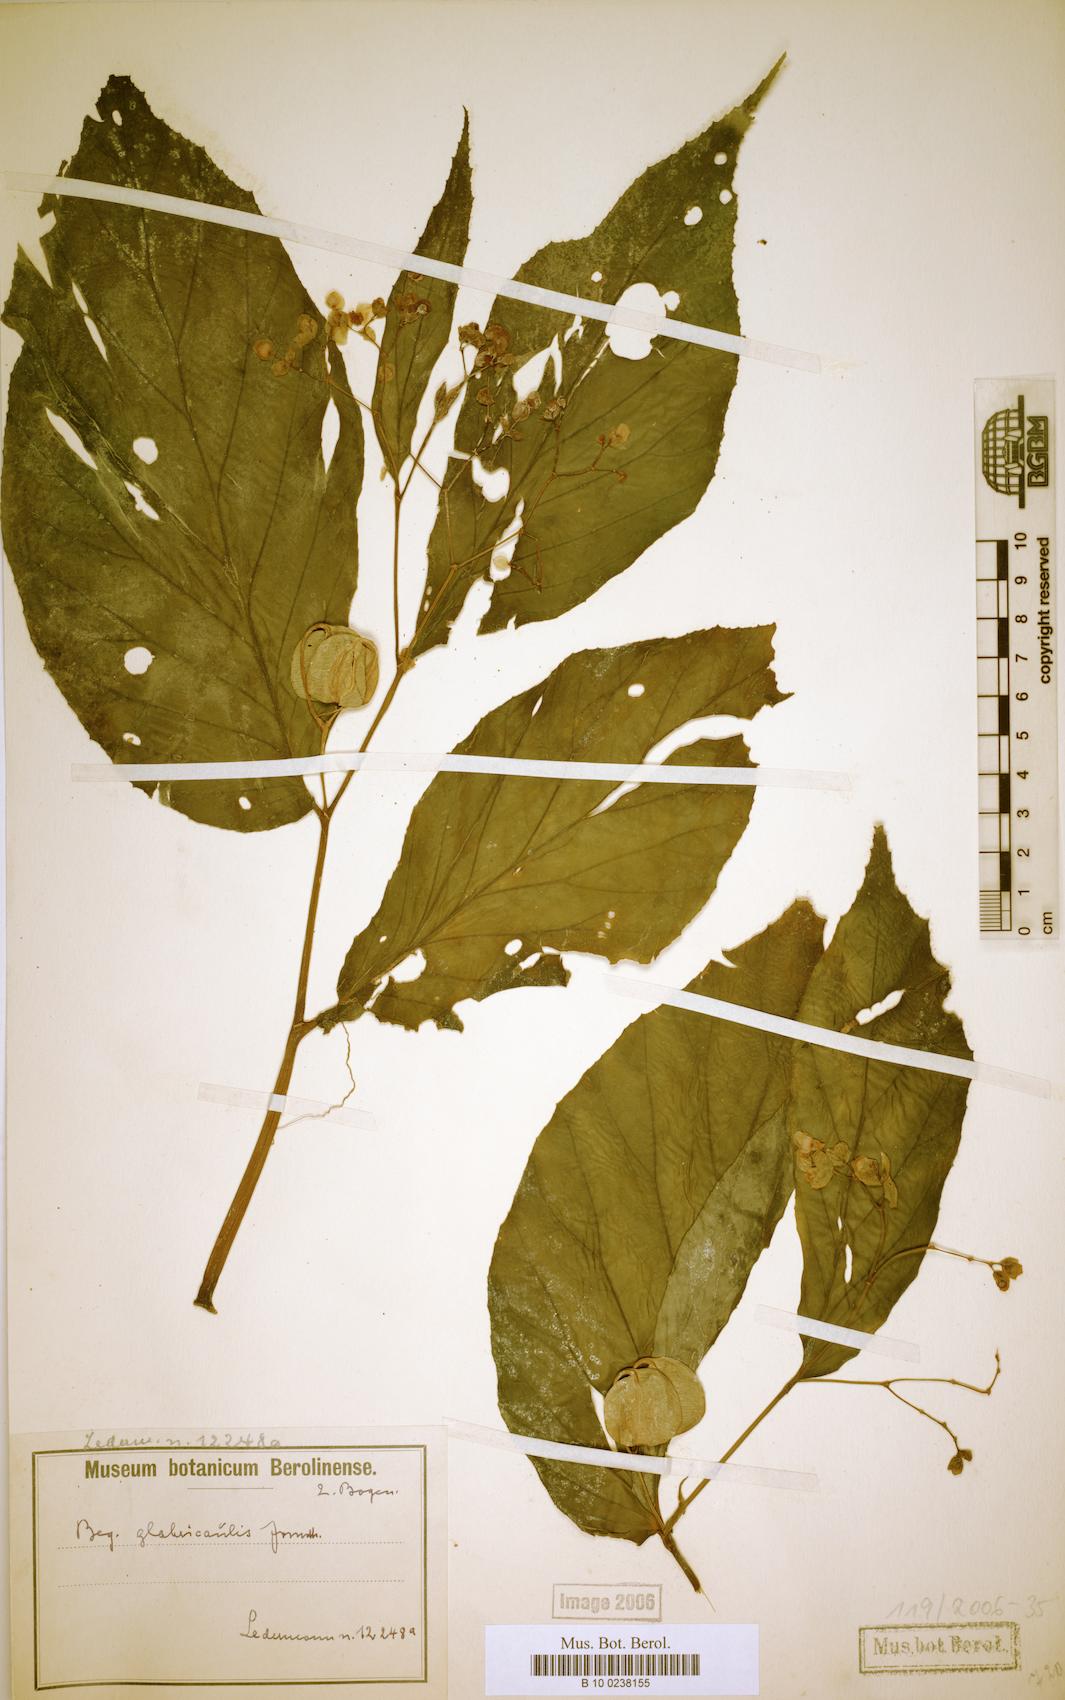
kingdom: Plantae
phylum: Tracheophyta
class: Magnoliopsida
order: Cucurbitales
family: Begoniaceae
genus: Begonia
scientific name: Begonia glabricaulis
